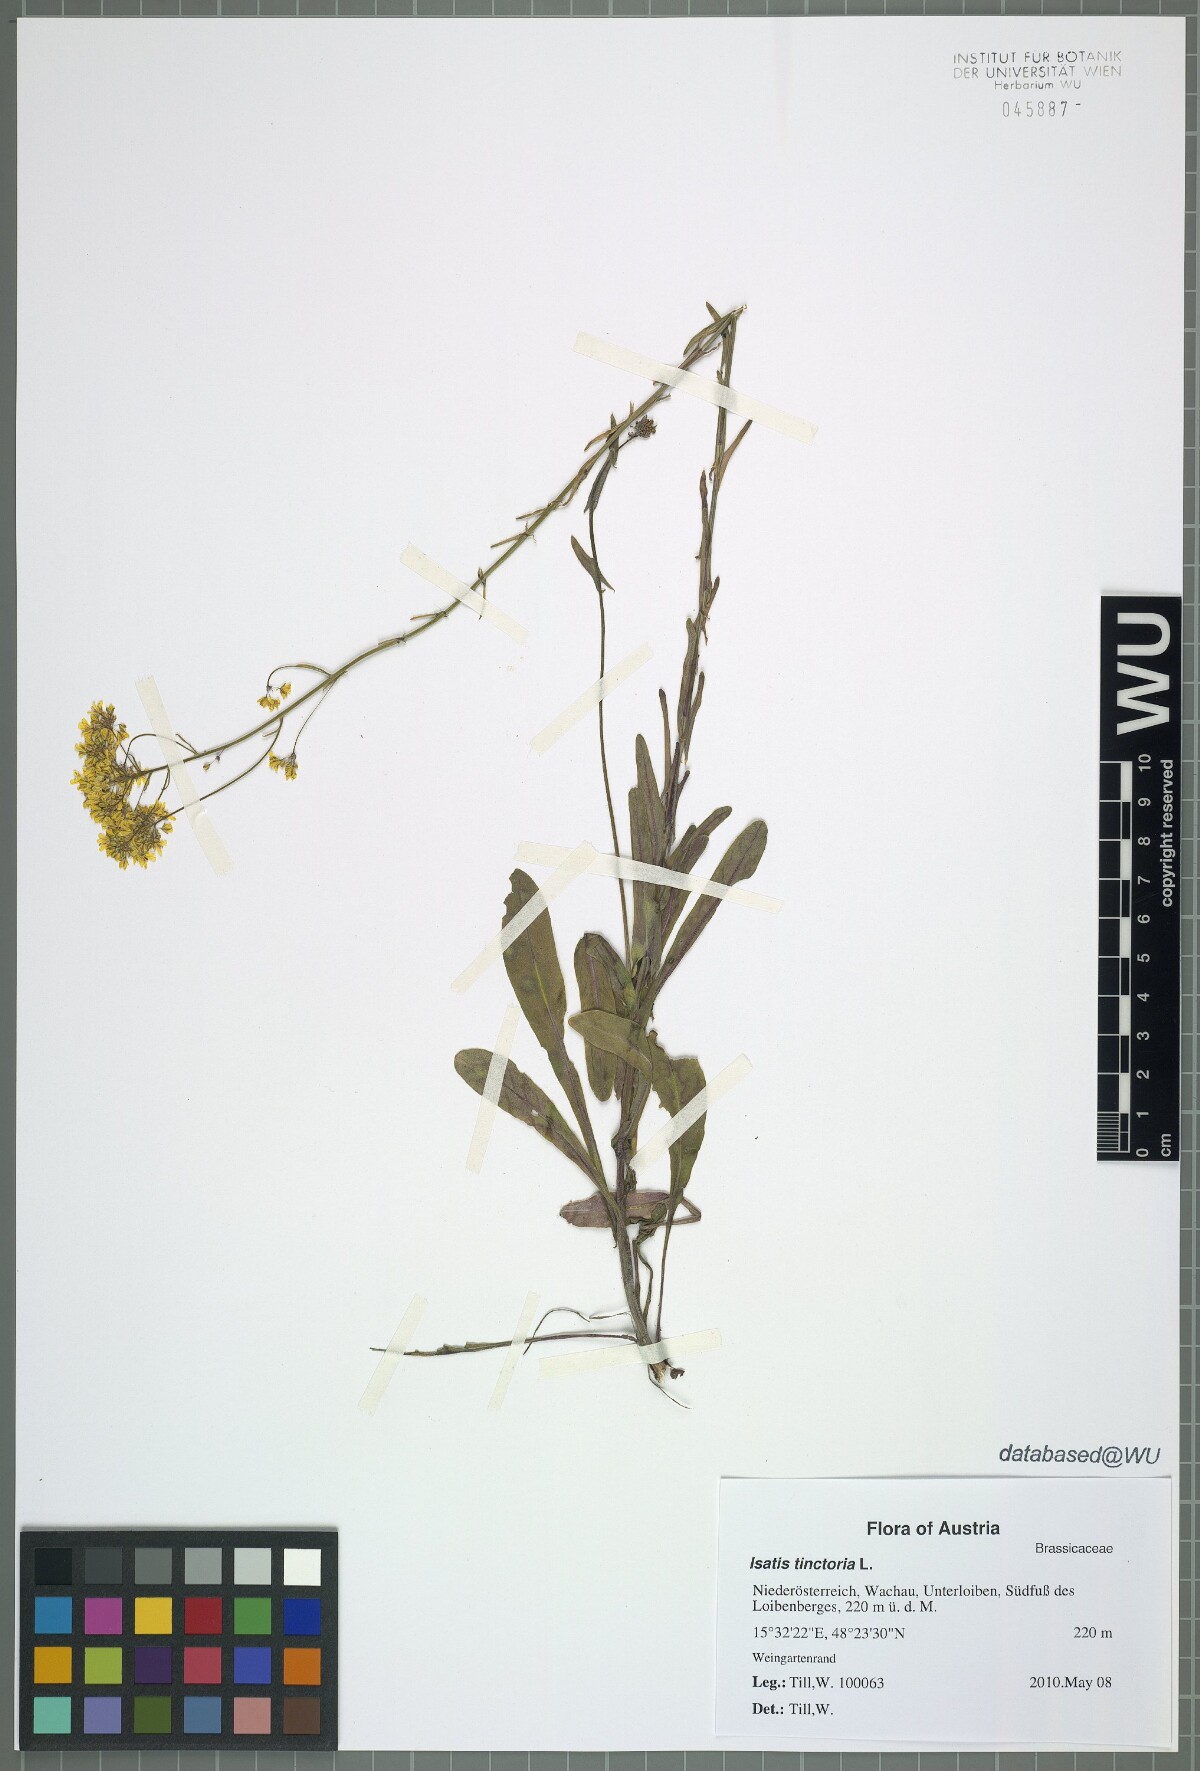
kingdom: Plantae
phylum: Tracheophyta
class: Magnoliopsida
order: Brassicales
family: Brassicaceae
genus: Isatis
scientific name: Isatis tinctoria
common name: Woad
